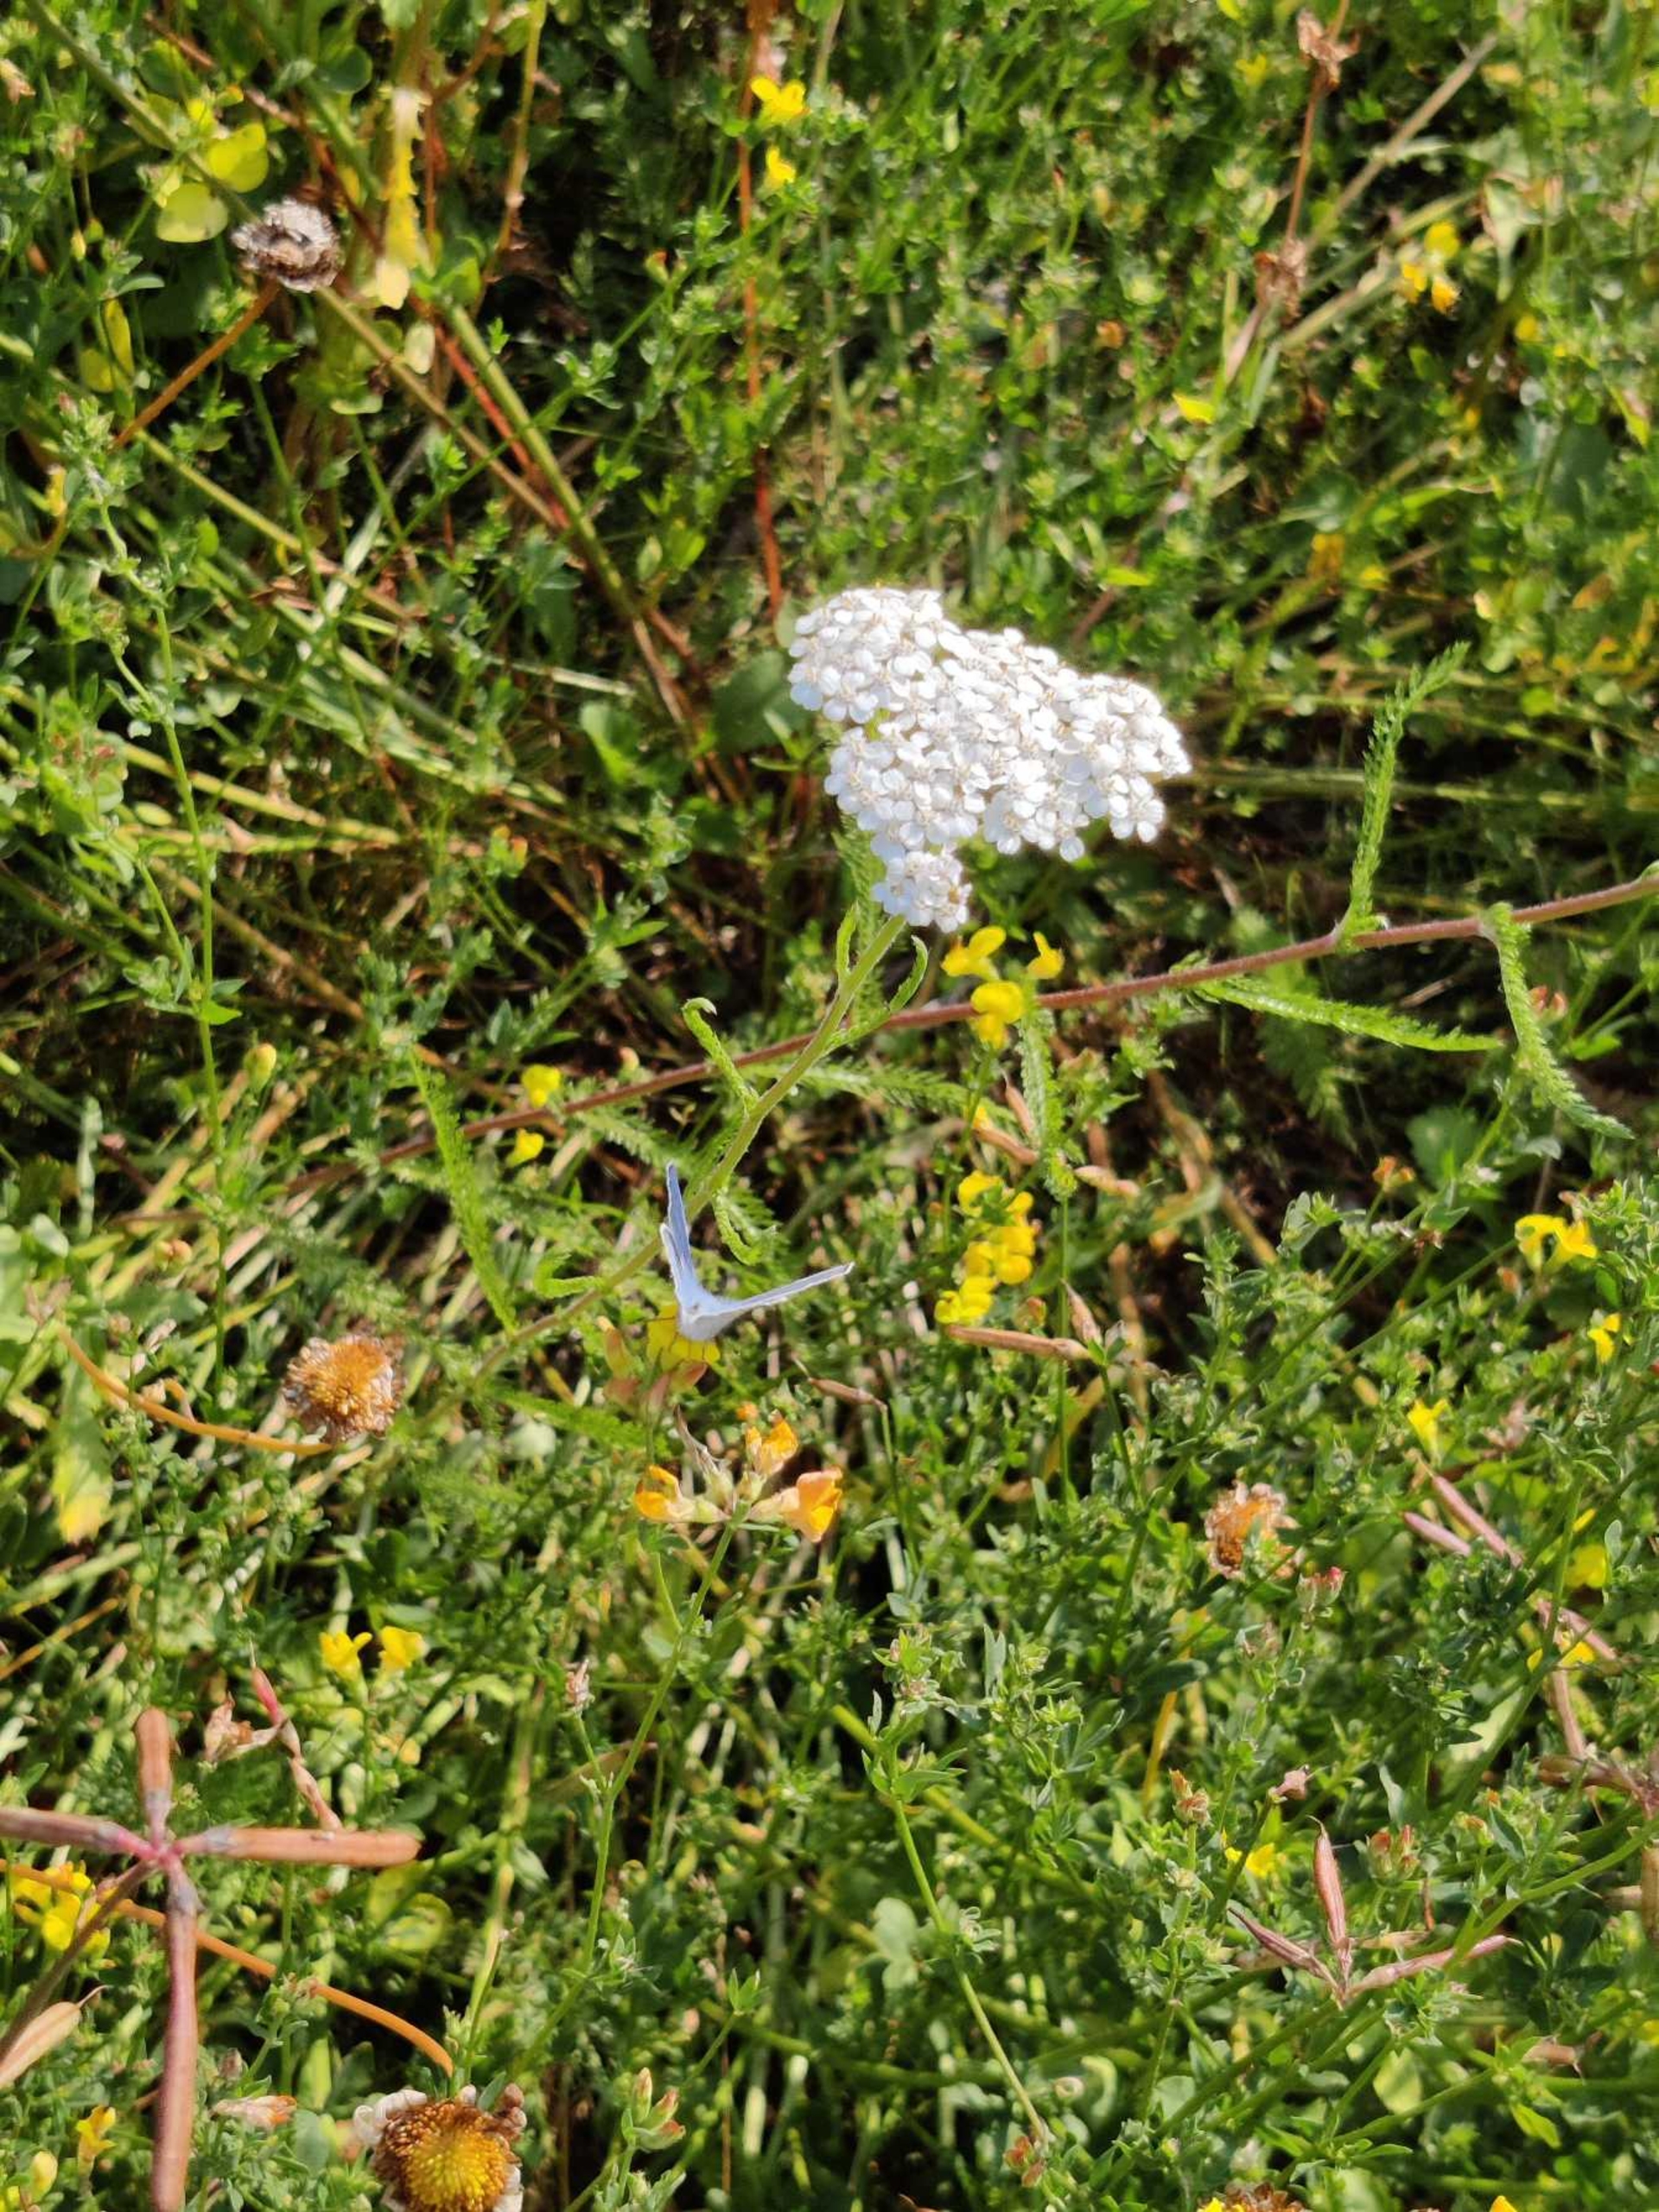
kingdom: Animalia
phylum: Arthropoda
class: Insecta
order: Lepidoptera
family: Lycaenidae
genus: Polyommatus
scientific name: Polyommatus icarus
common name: Almindelig blåfugl
